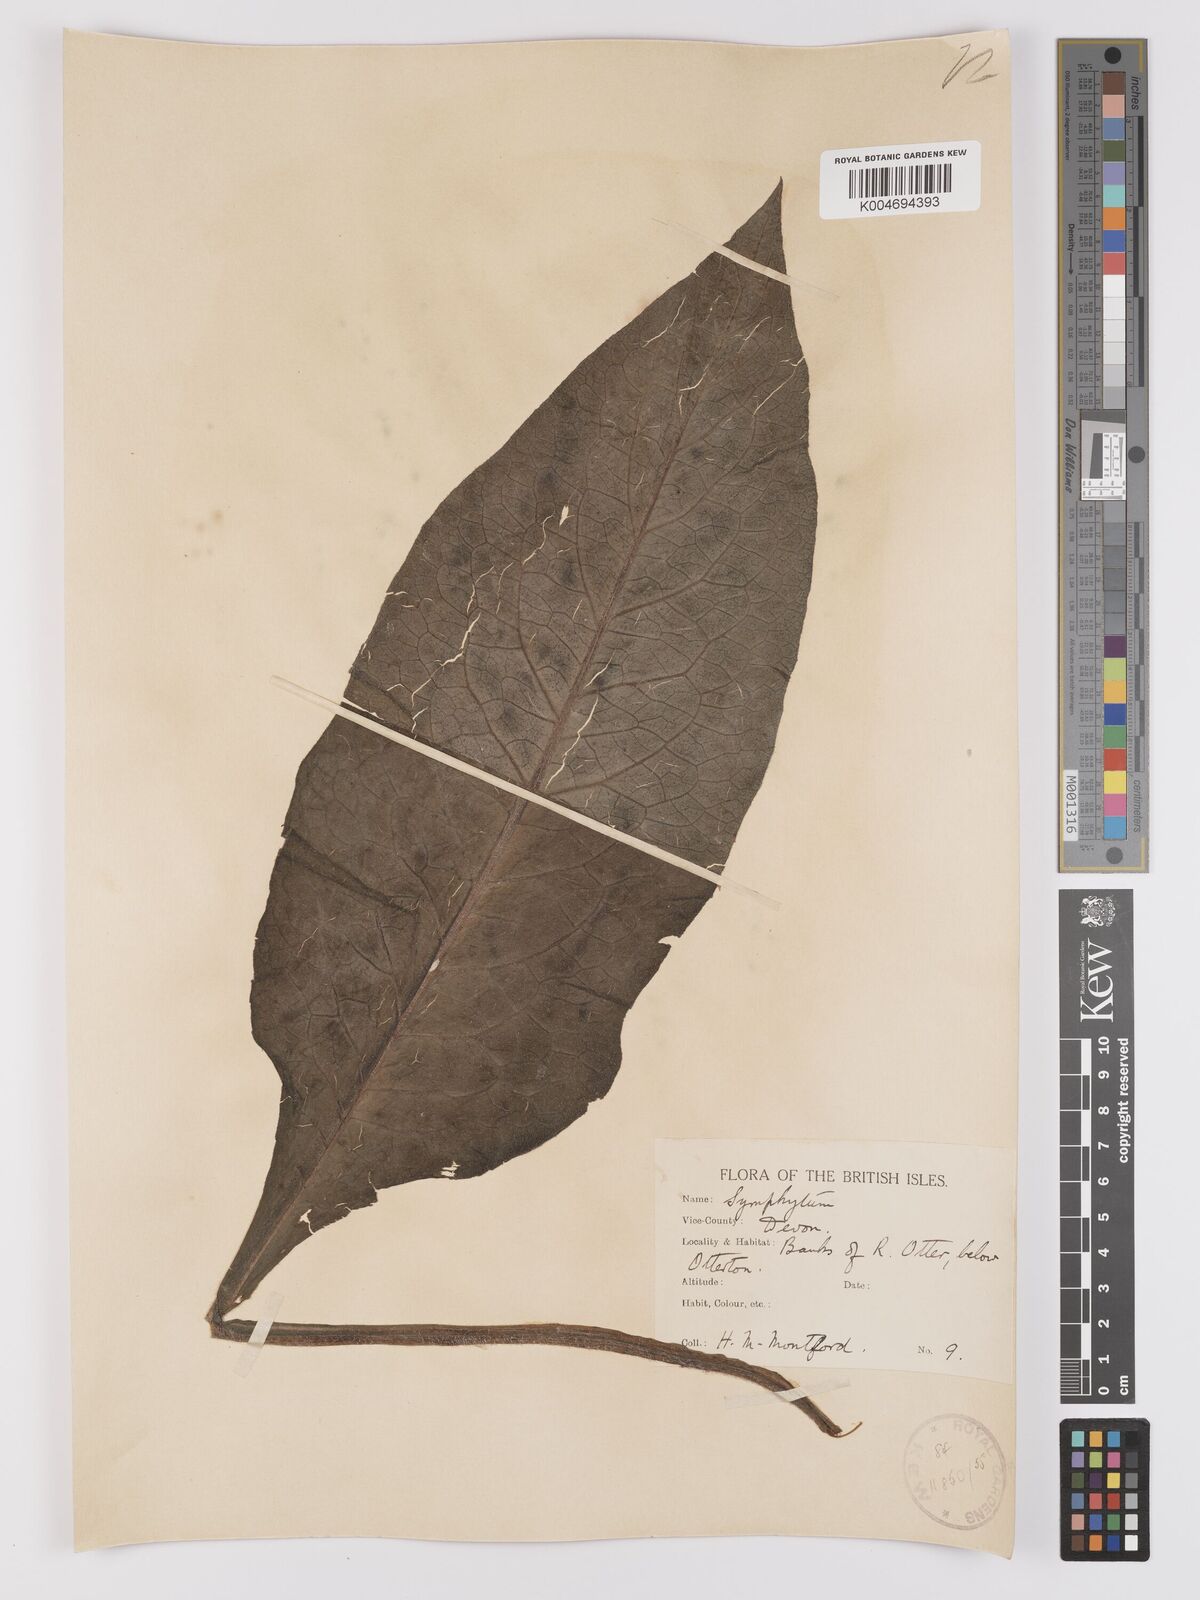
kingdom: Plantae
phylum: Tracheophyta
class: Magnoliopsida
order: Boraginales
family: Boraginaceae
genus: Symphytum
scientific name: Symphytum officinale
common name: Common comfrey
